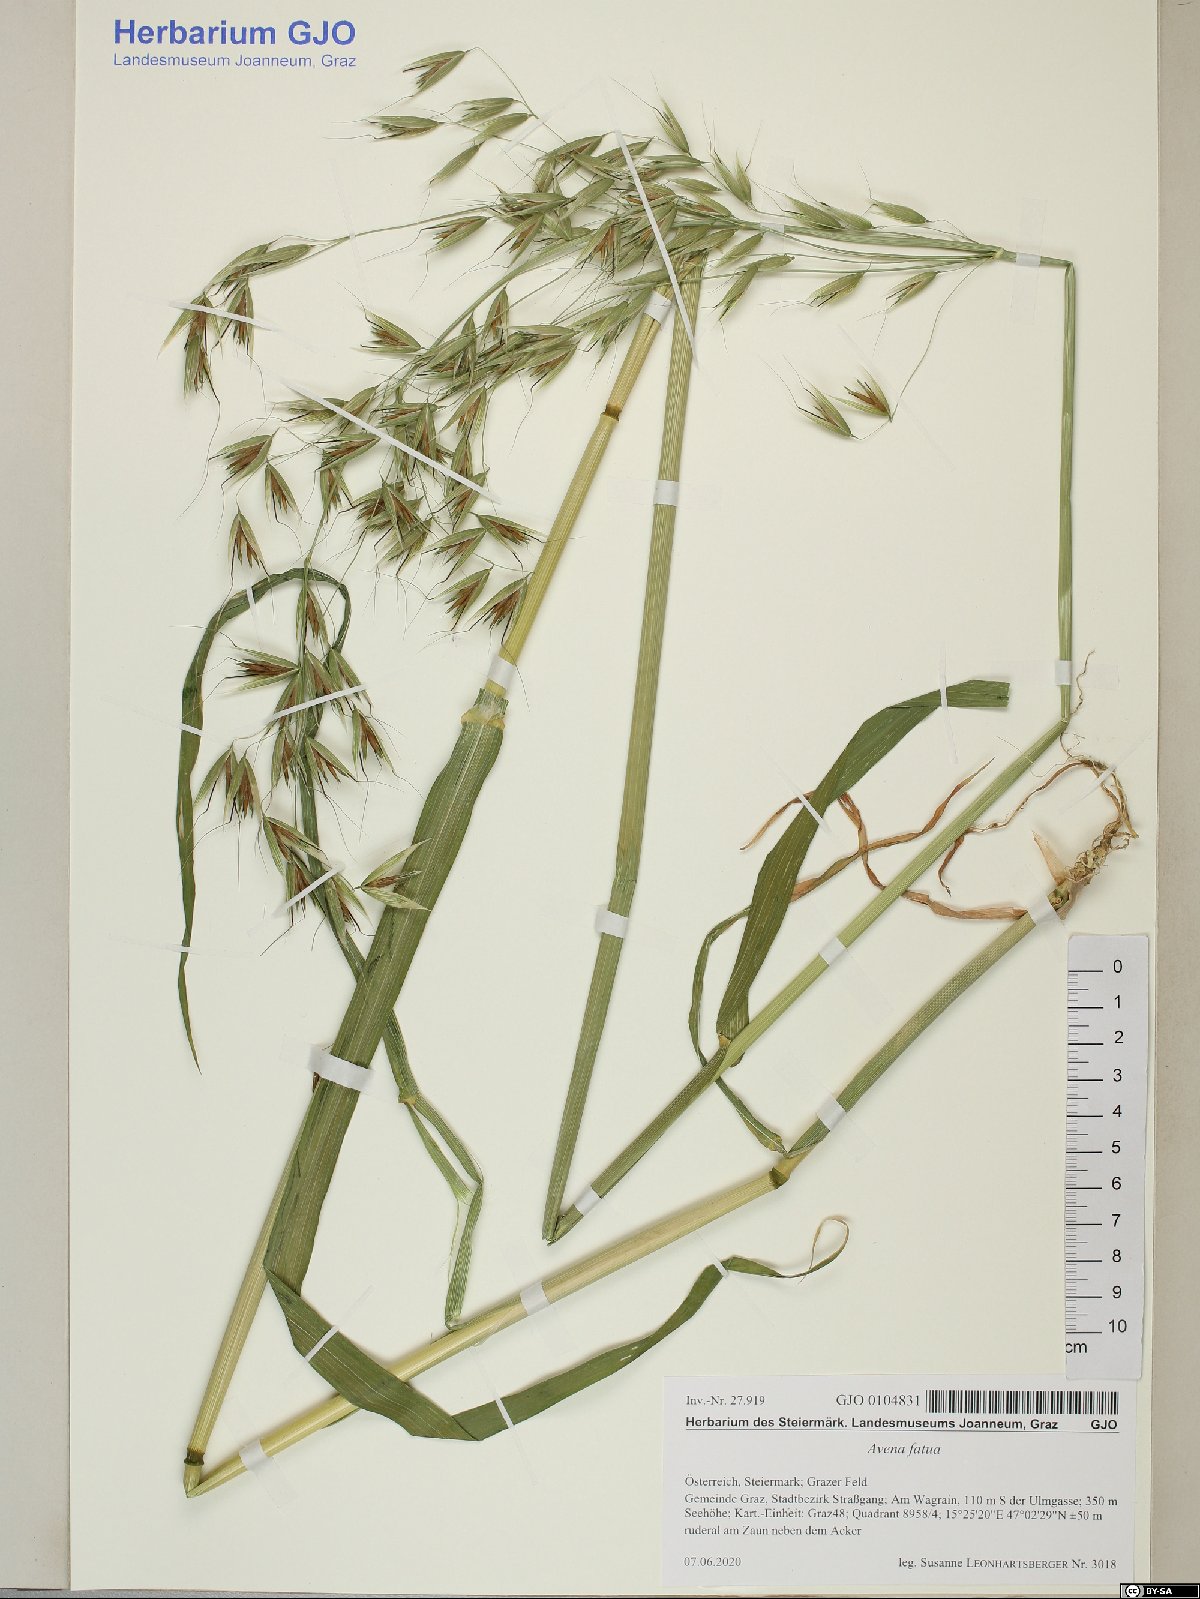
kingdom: Plantae
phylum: Tracheophyta
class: Liliopsida
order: Poales
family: Poaceae
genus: Avena
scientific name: Avena fatua
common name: Wild oat
